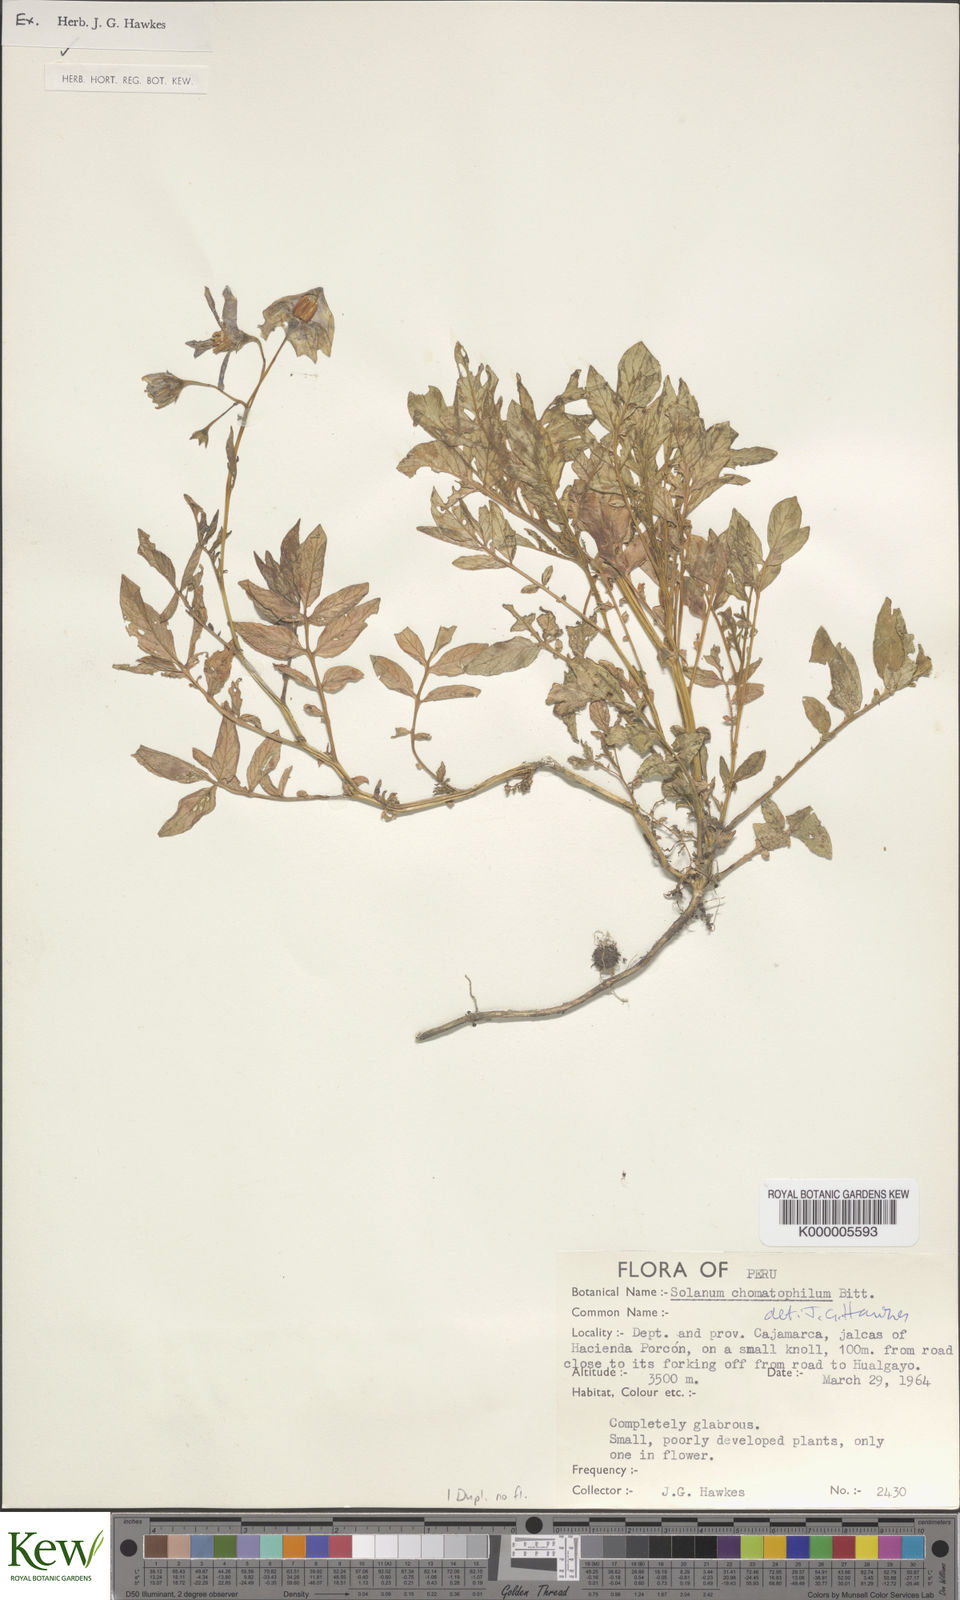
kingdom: Plantae
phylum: Tracheophyta
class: Magnoliopsida
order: Solanales
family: Solanaceae
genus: Solanum
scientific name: Solanum chomatophilum
